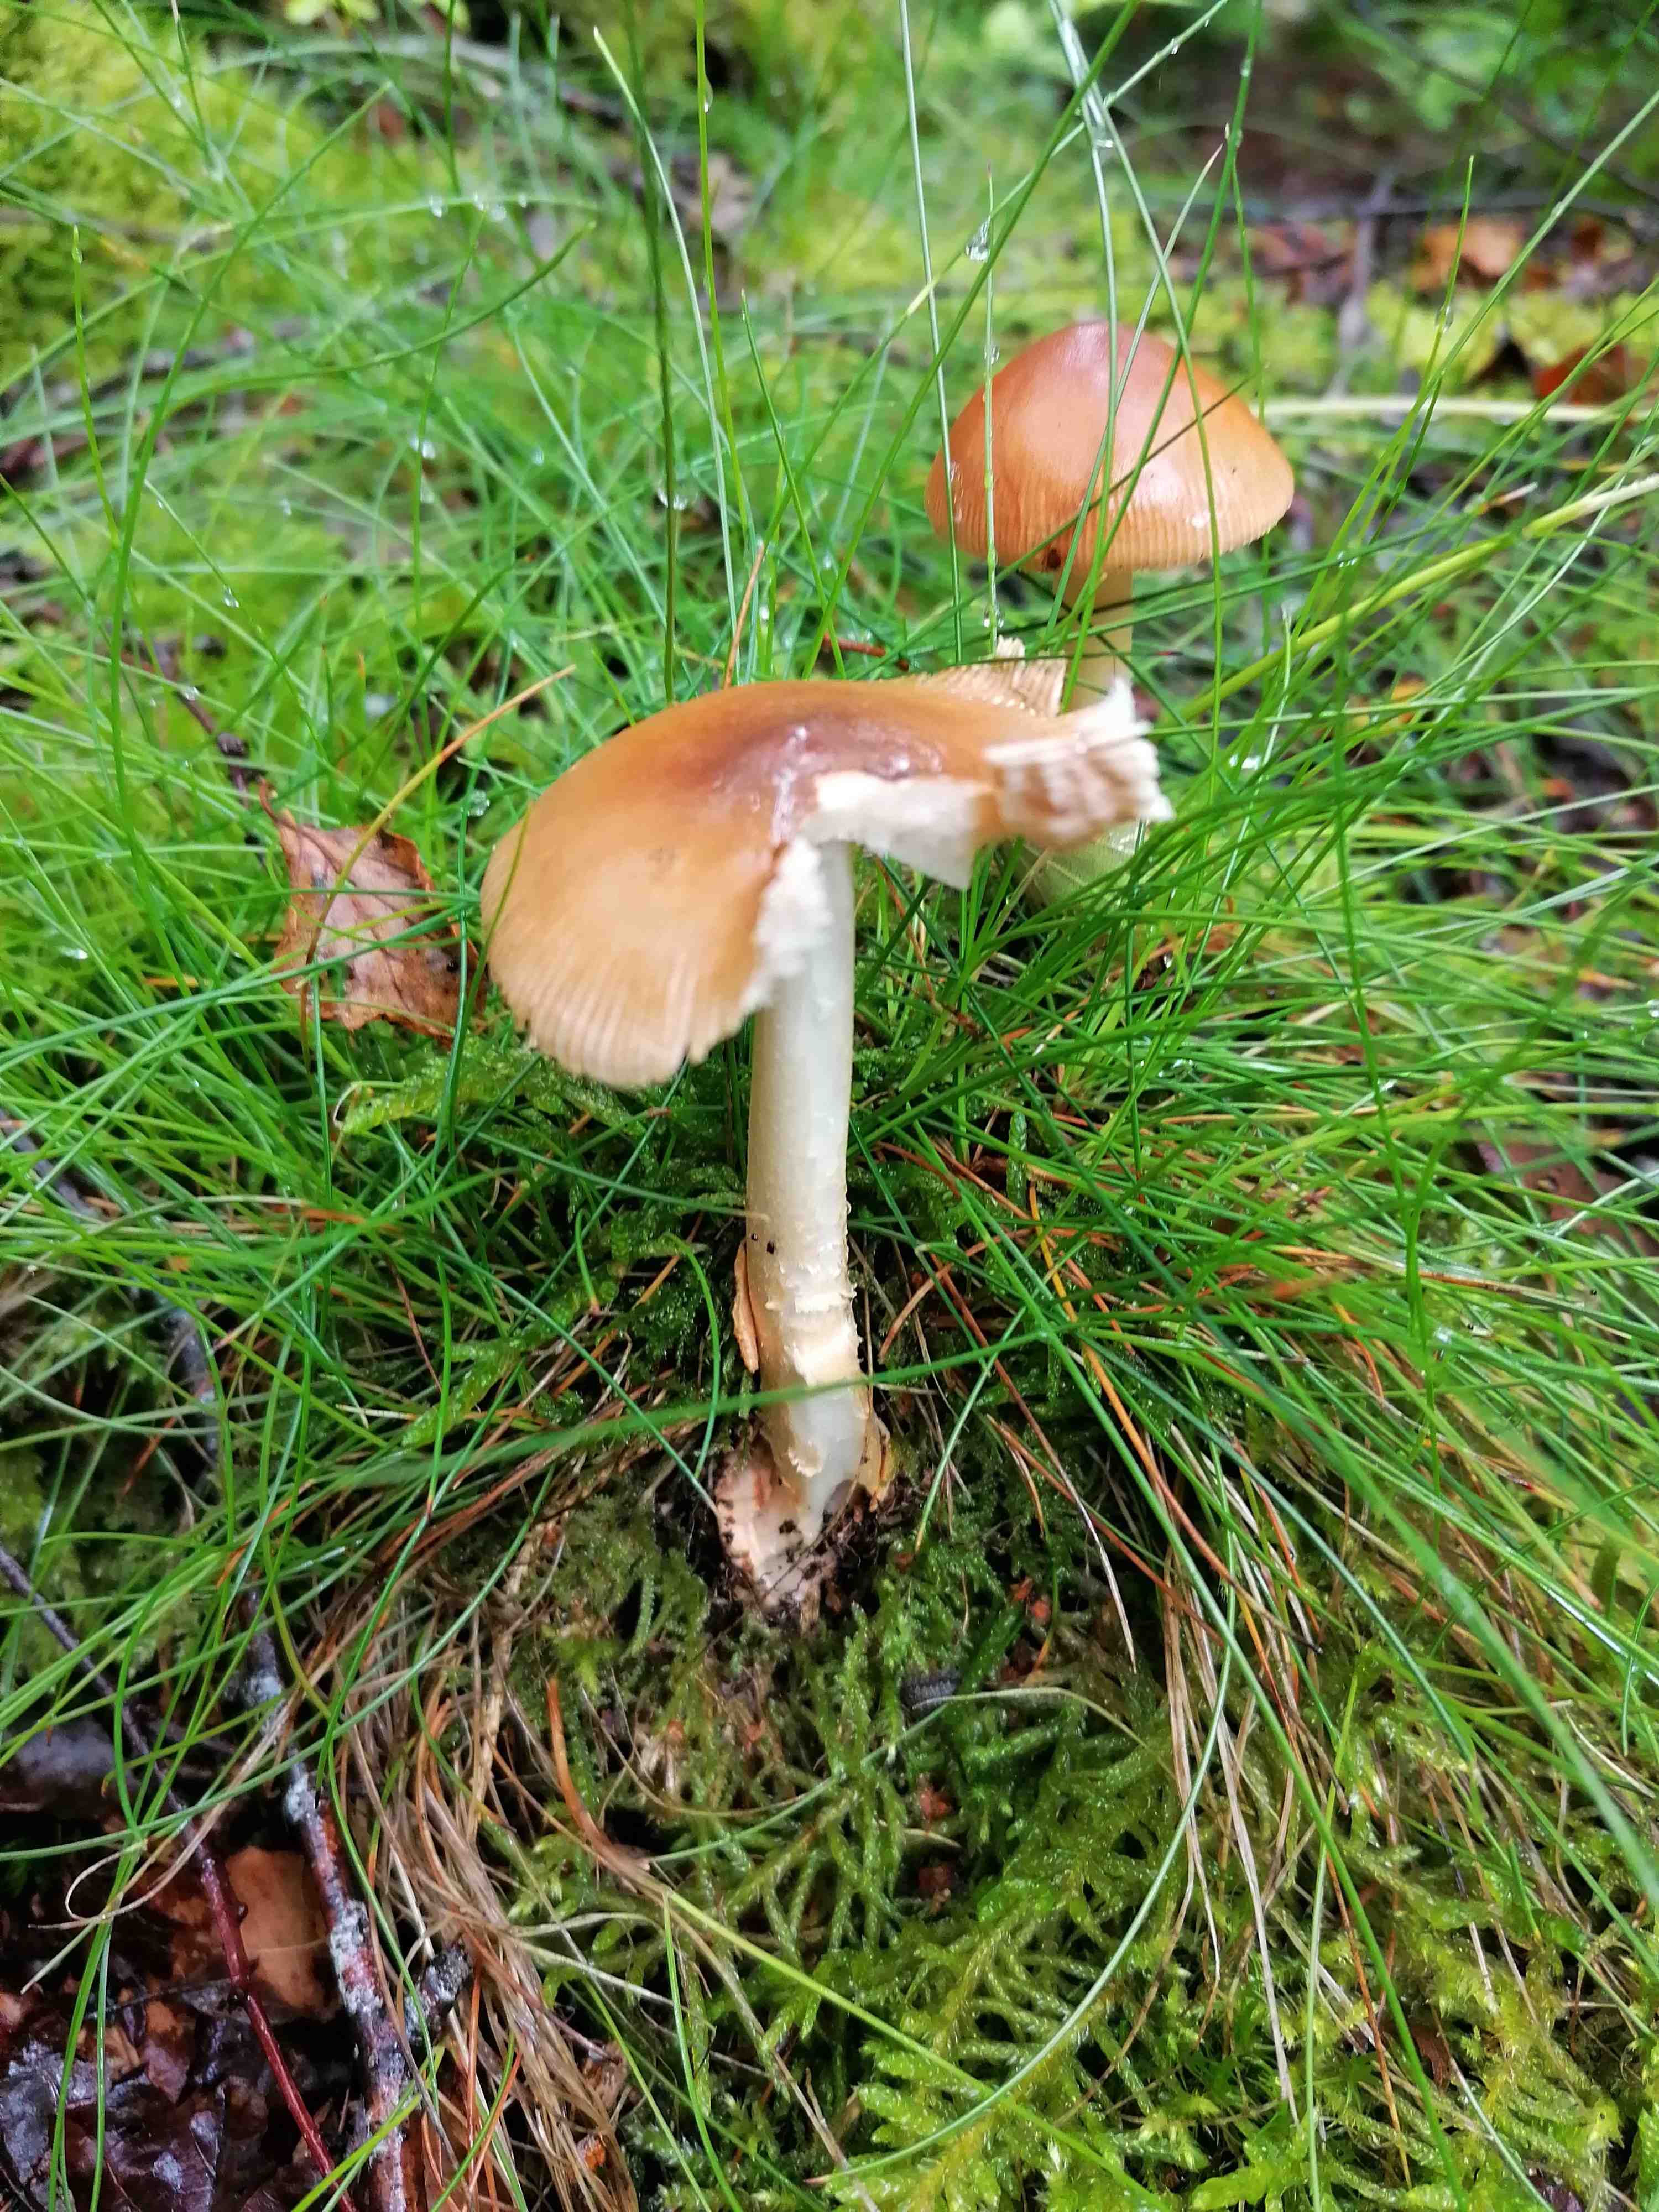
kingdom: Fungi
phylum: Basidiomycota
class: Agaricomycetes
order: Agaricales
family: Amanitaceae
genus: Amanita
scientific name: Amanita fulva
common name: brun kam-fluesvamp
